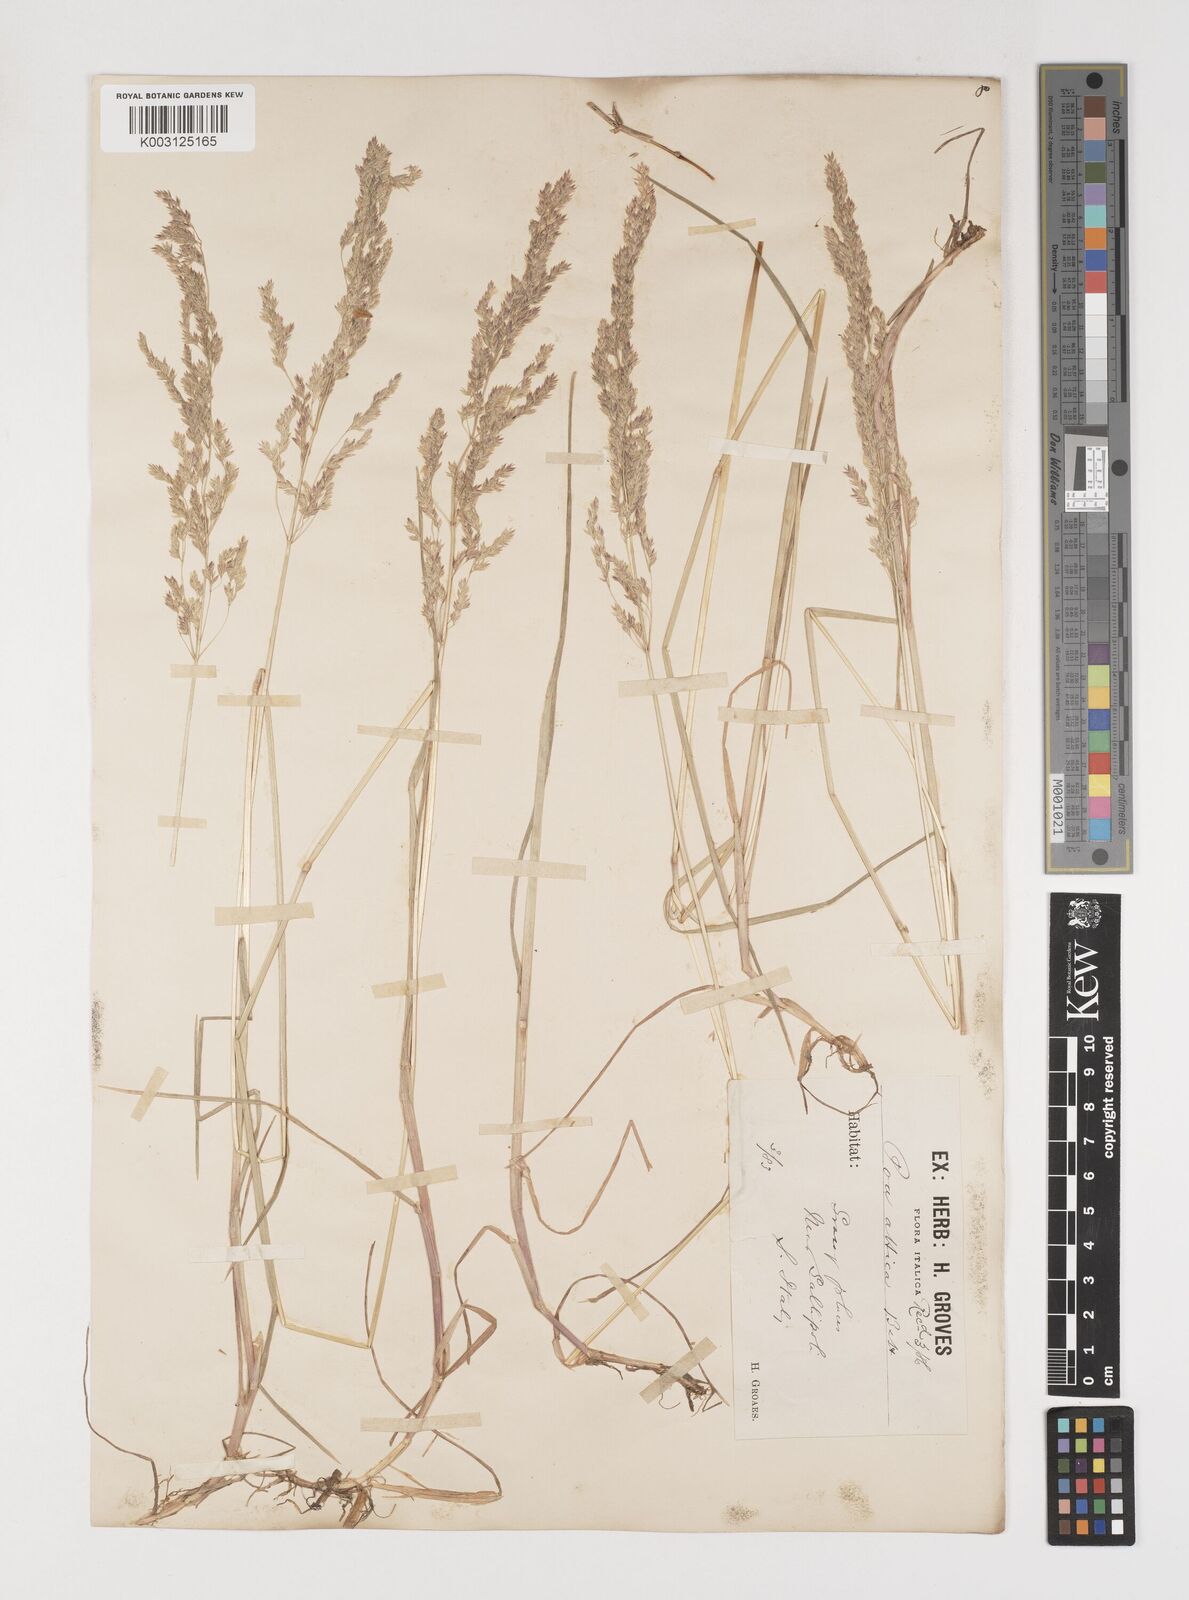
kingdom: Plantae
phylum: Tracheophyta
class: Liliopsida
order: Poales
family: Poaceae
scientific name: Poaceae
